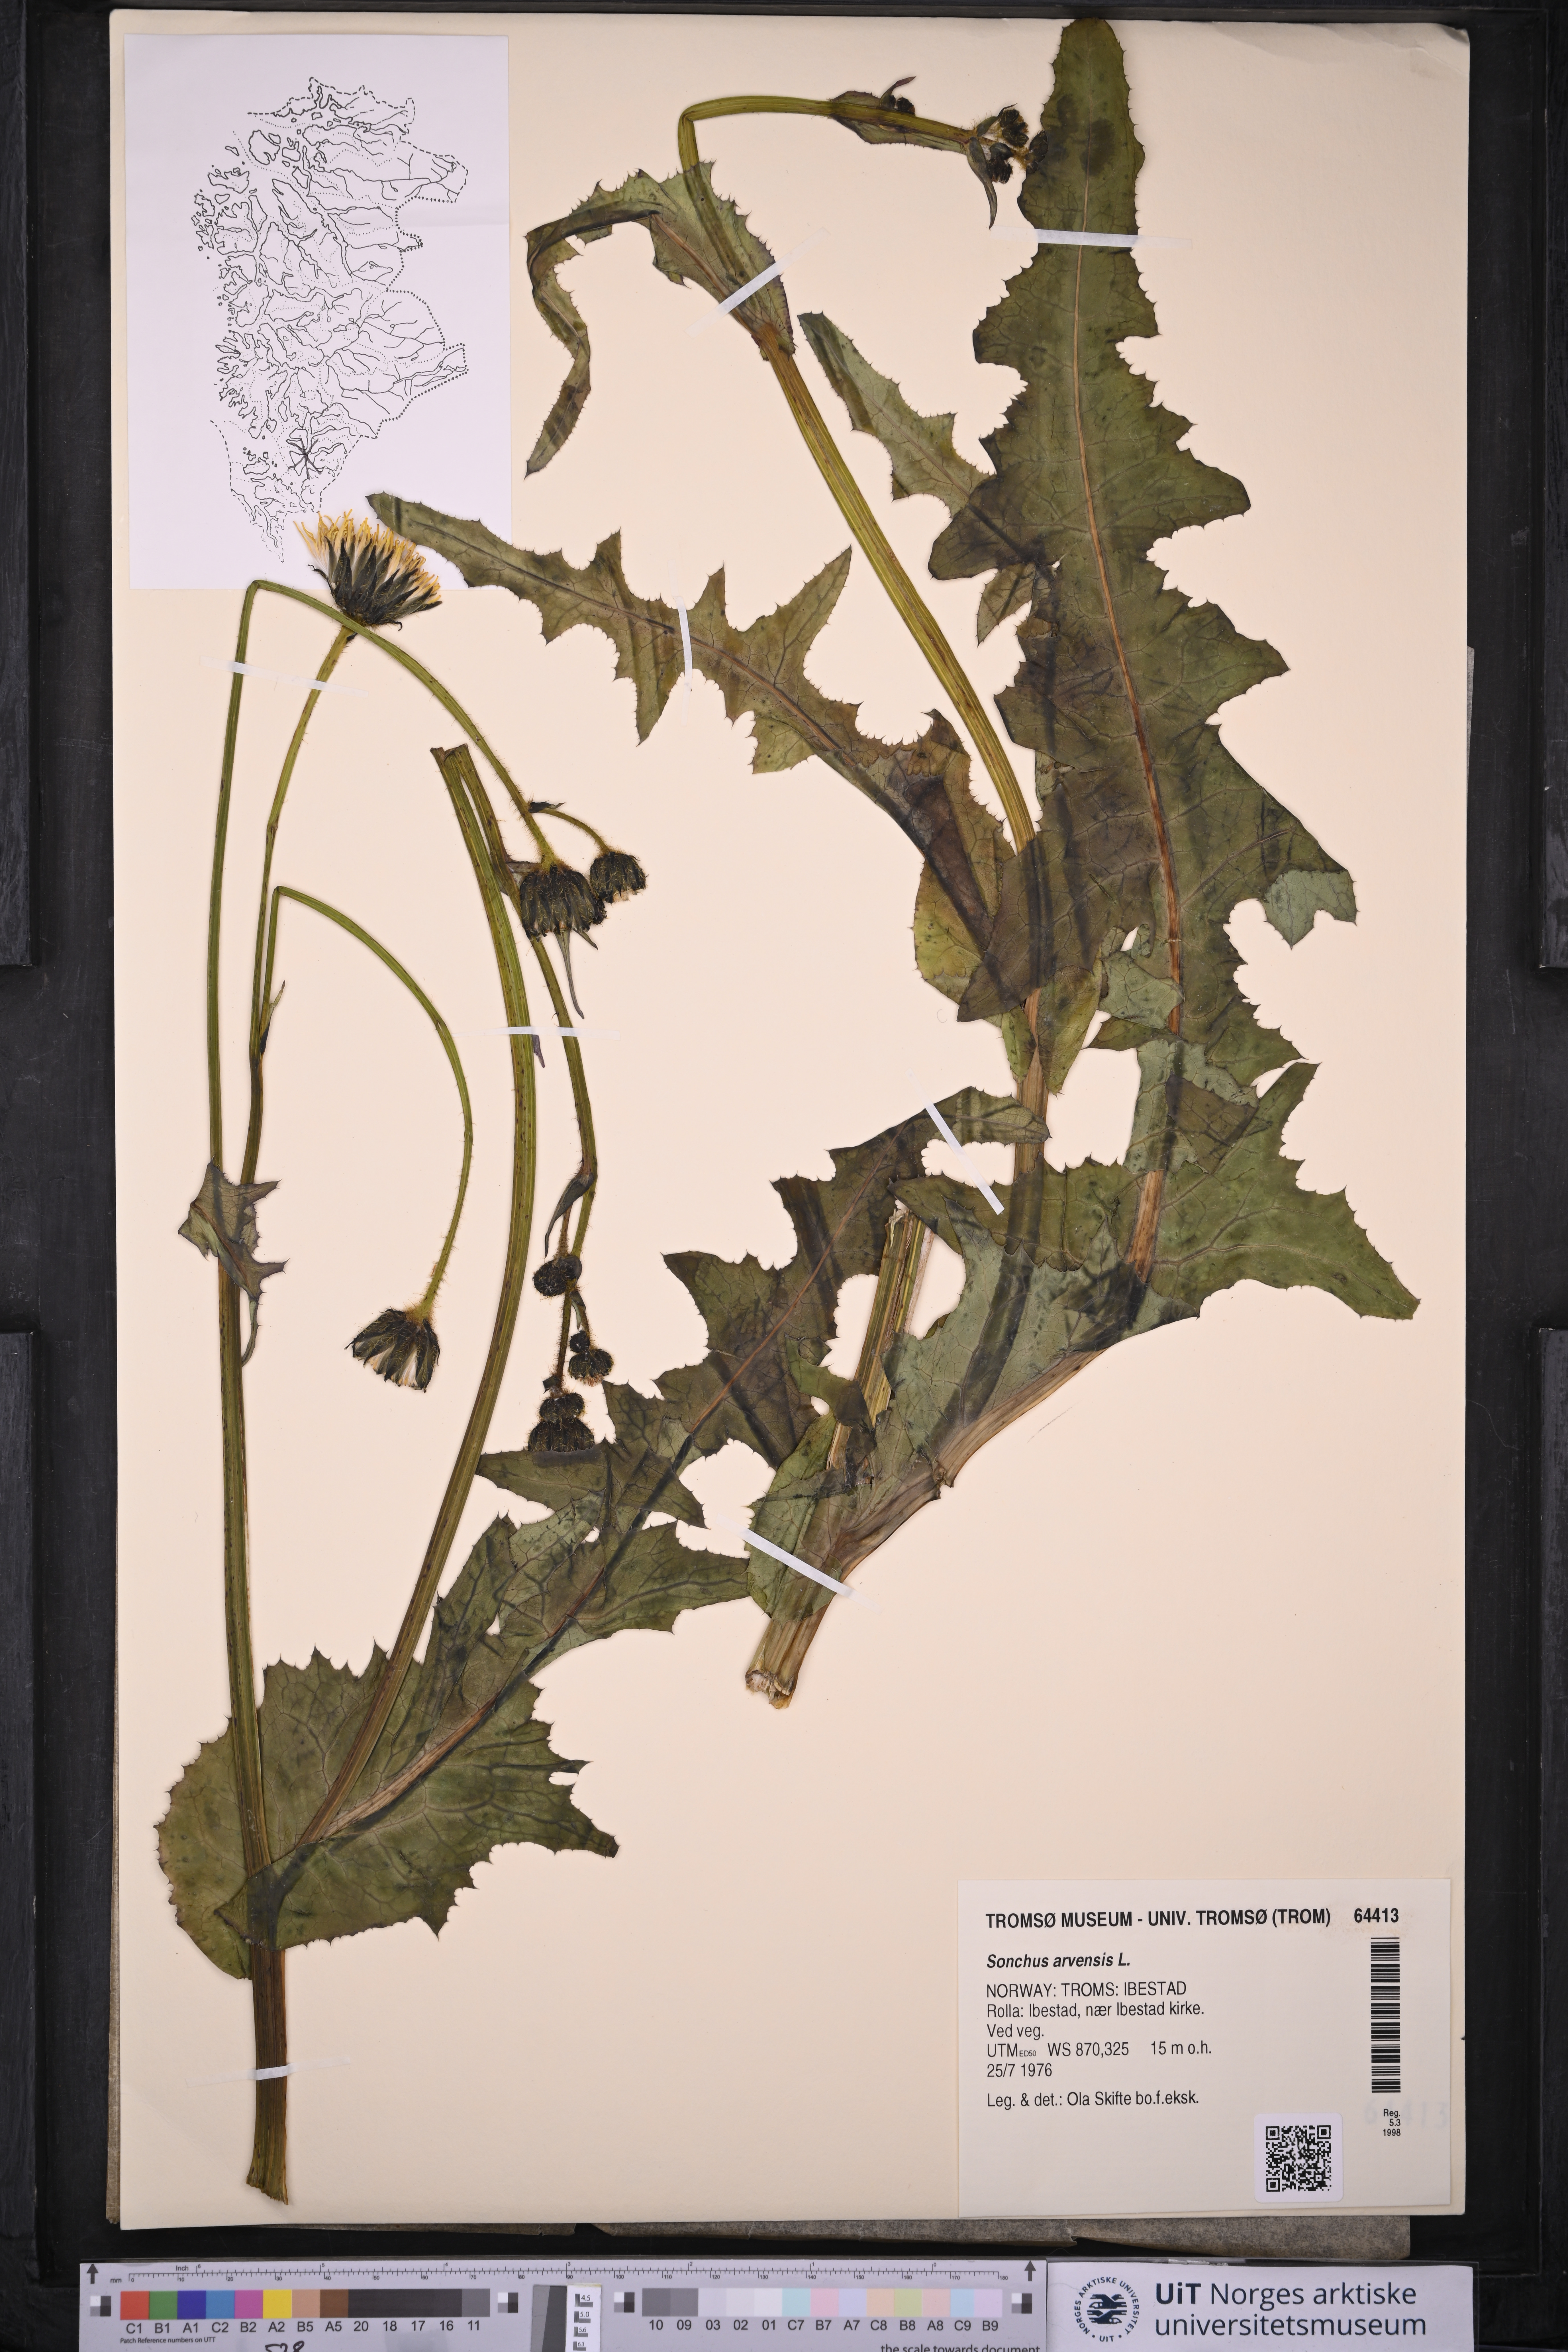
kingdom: Plantae
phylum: Tracheophyta
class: Magnoliopsida
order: Asterales
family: Asteraceae
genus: Sonchus
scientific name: Sonchus arvensis
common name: Perennial sow-thistle
